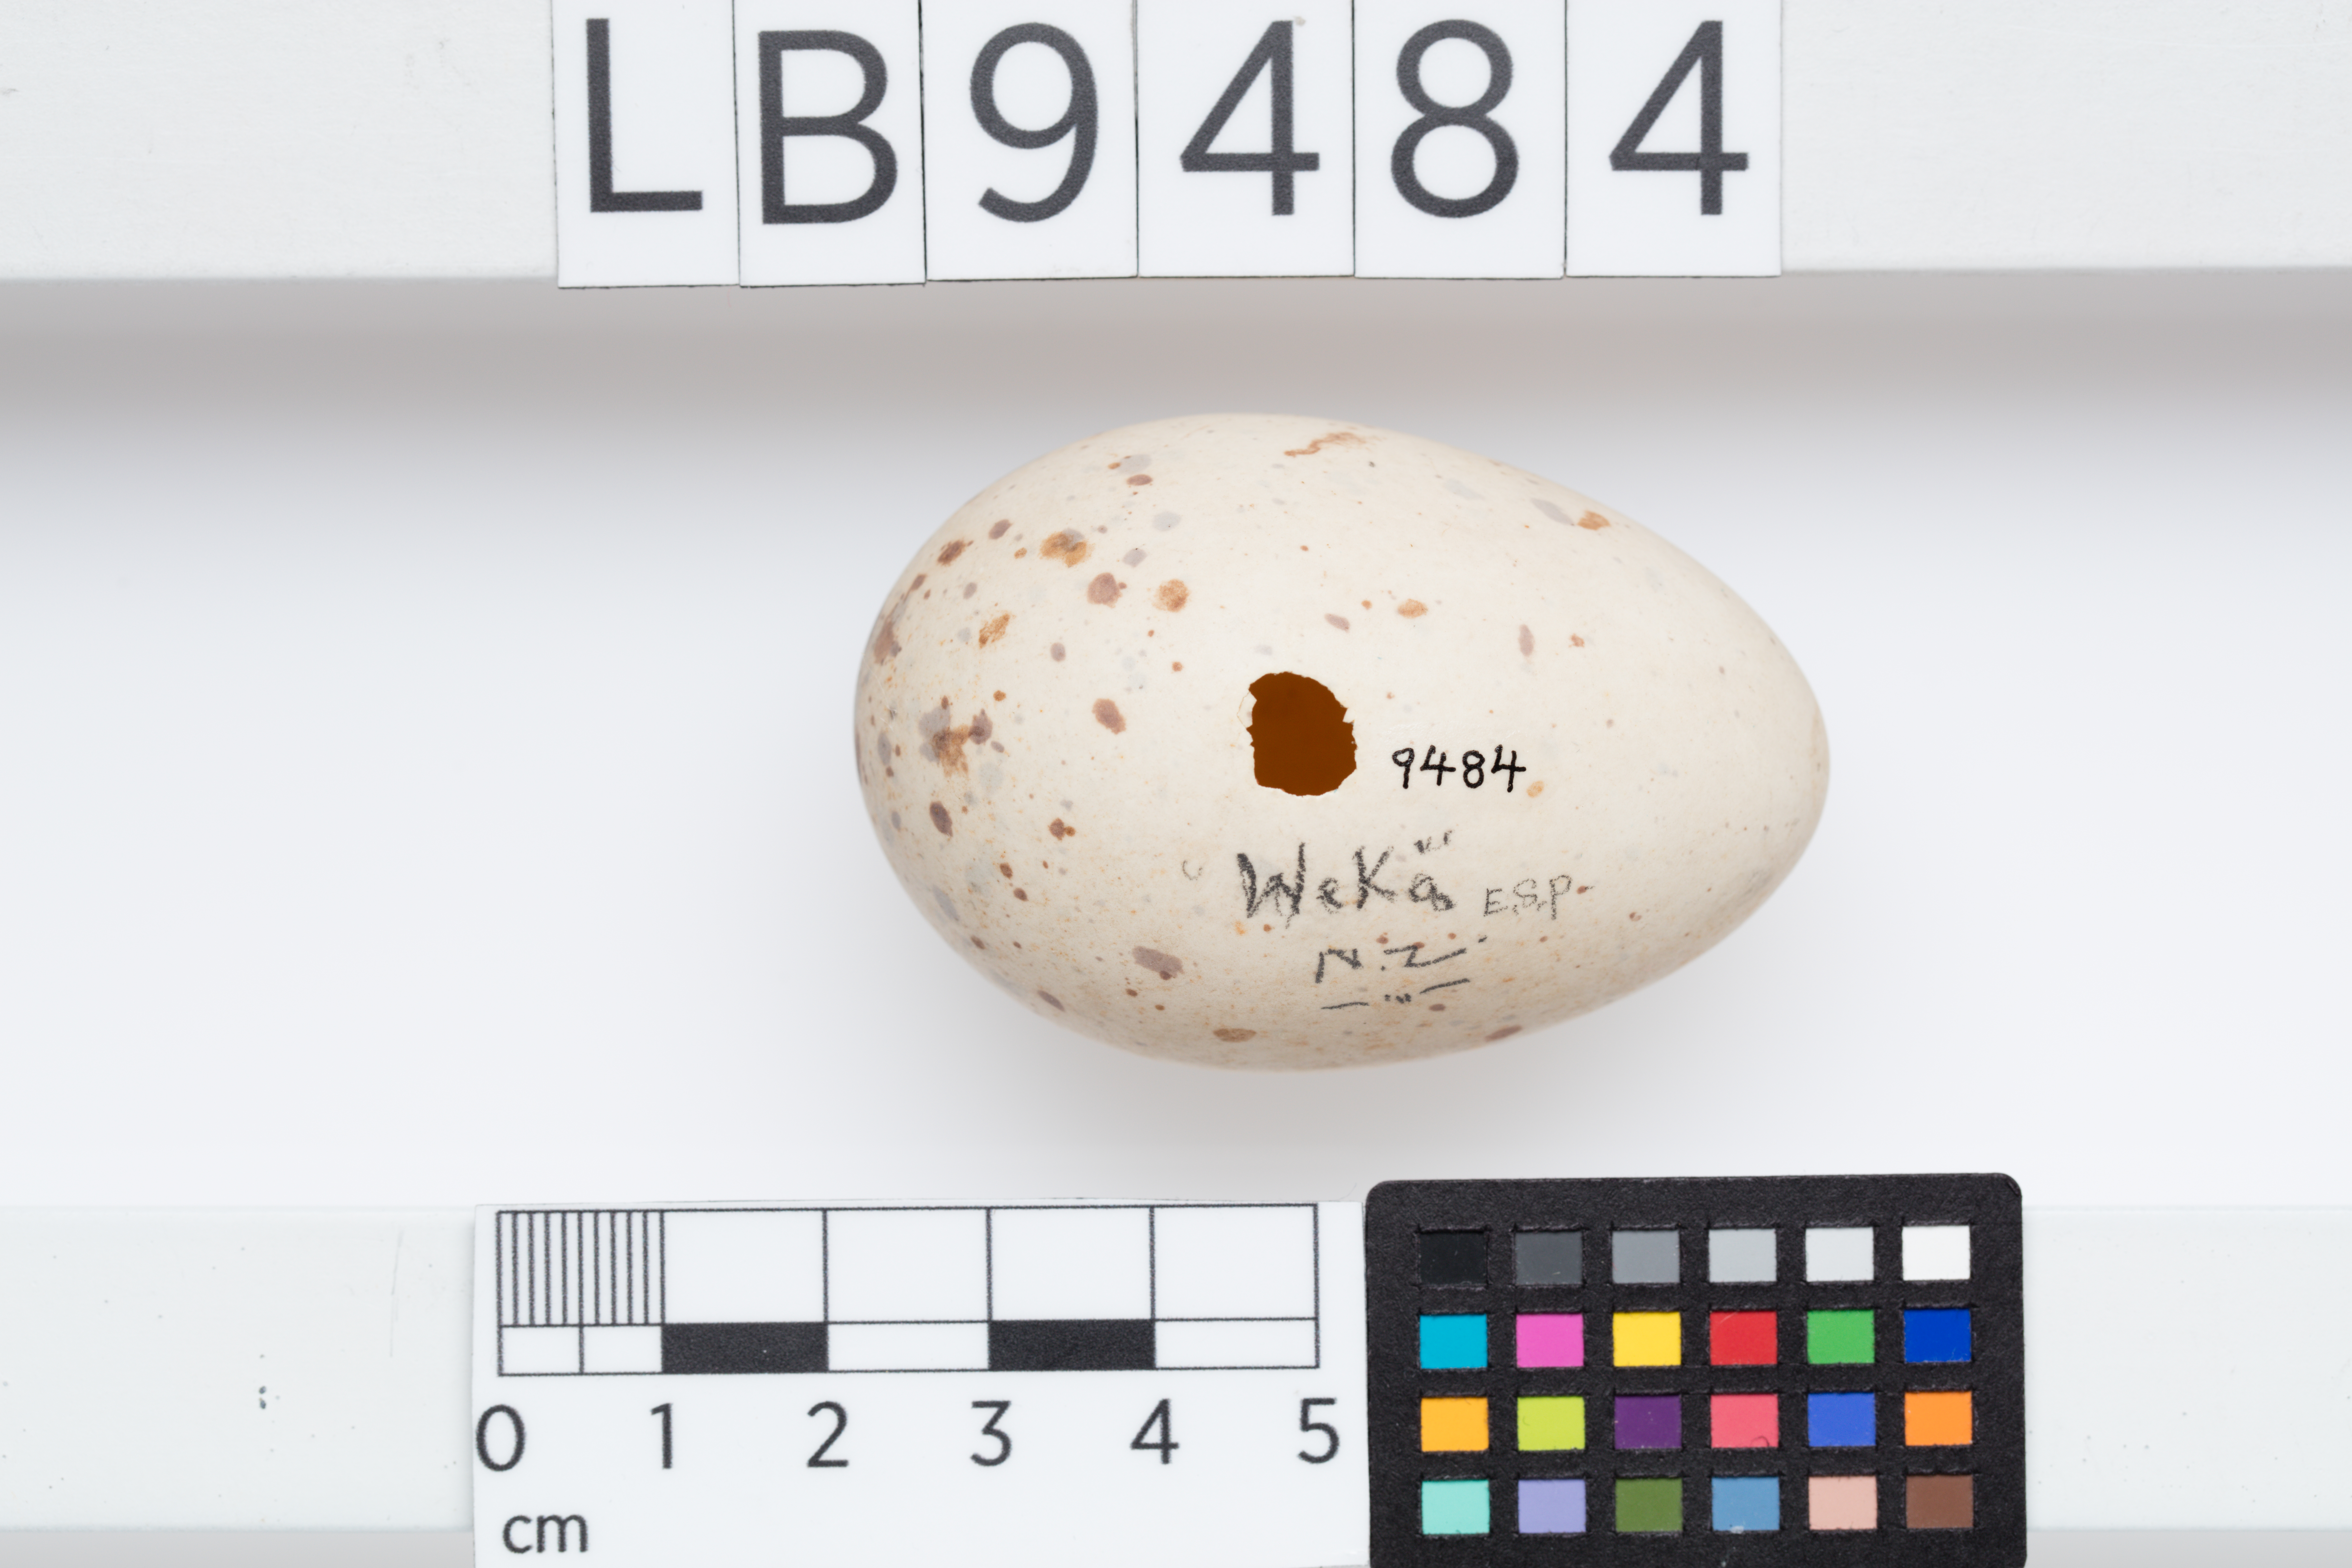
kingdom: Animalia
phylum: Chordata
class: Aves
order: Gruiformes
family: Rallidae
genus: Gallirallus
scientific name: Gallirallus australis
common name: Weka
